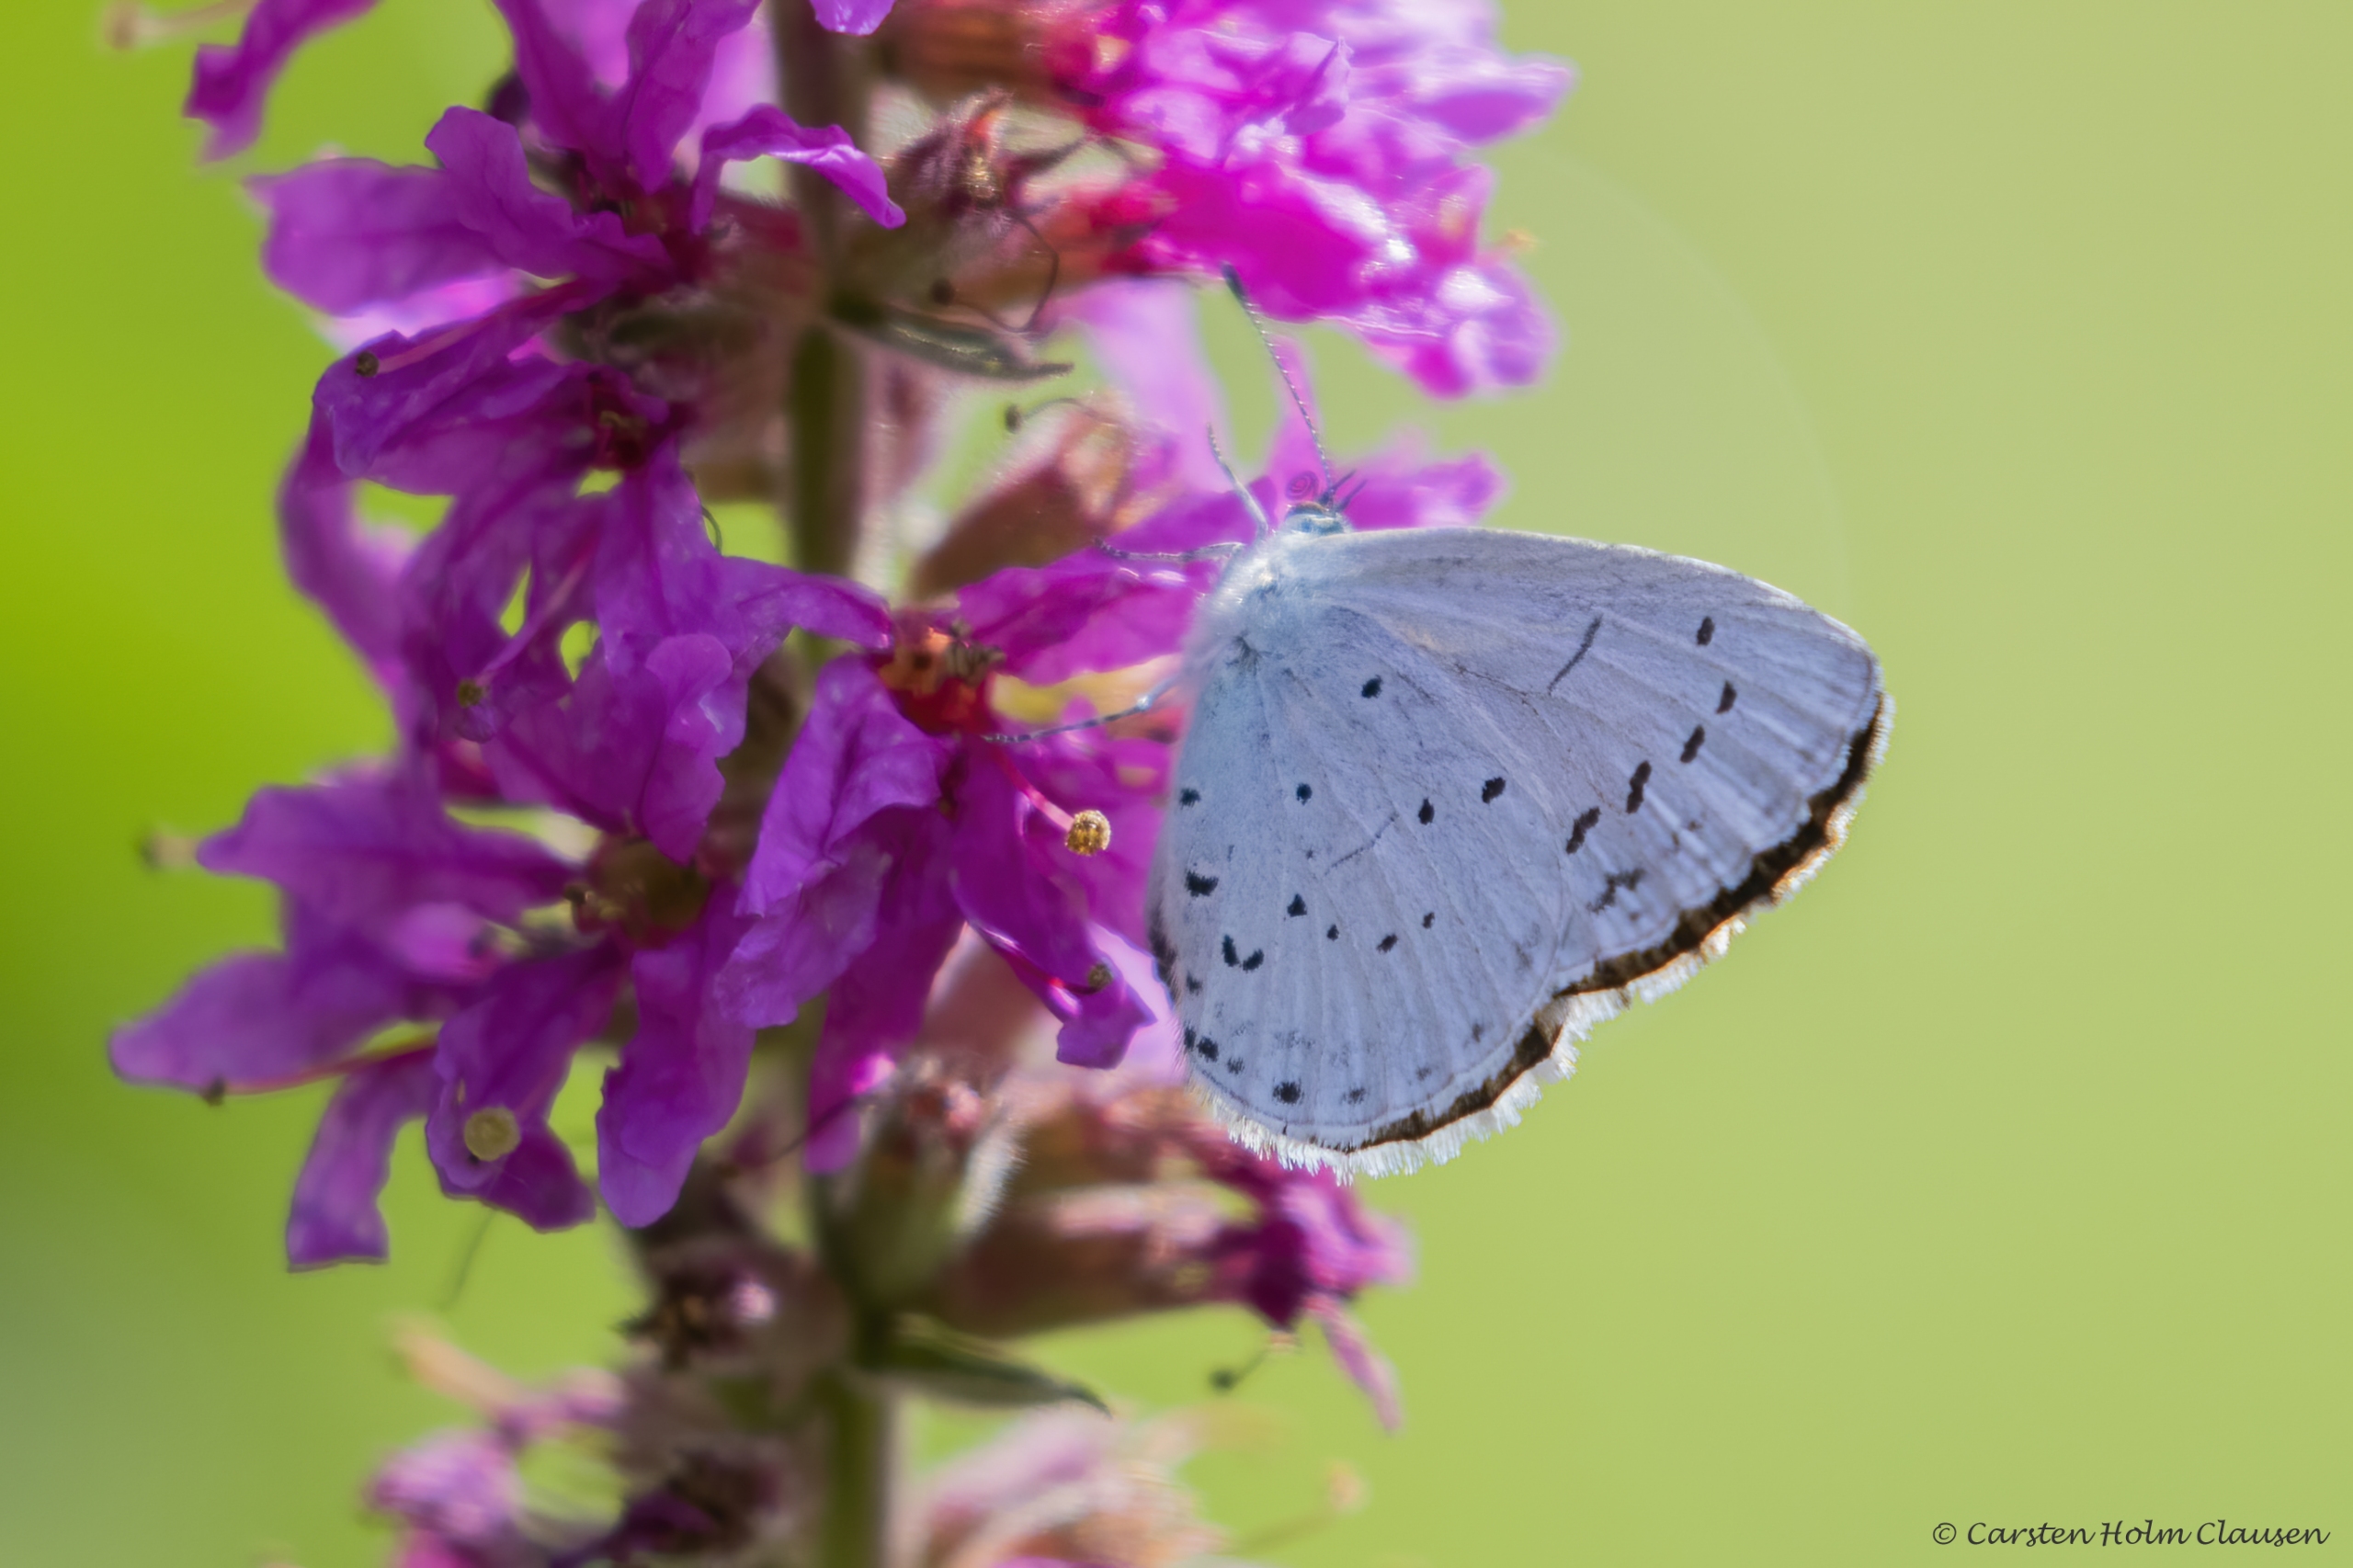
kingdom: Animalia
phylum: Arthropoda
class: Insecta
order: Lepidoptera
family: Lycaenidae
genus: Celastrina
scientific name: Celastrina argiolus
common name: Skovblåfugl
